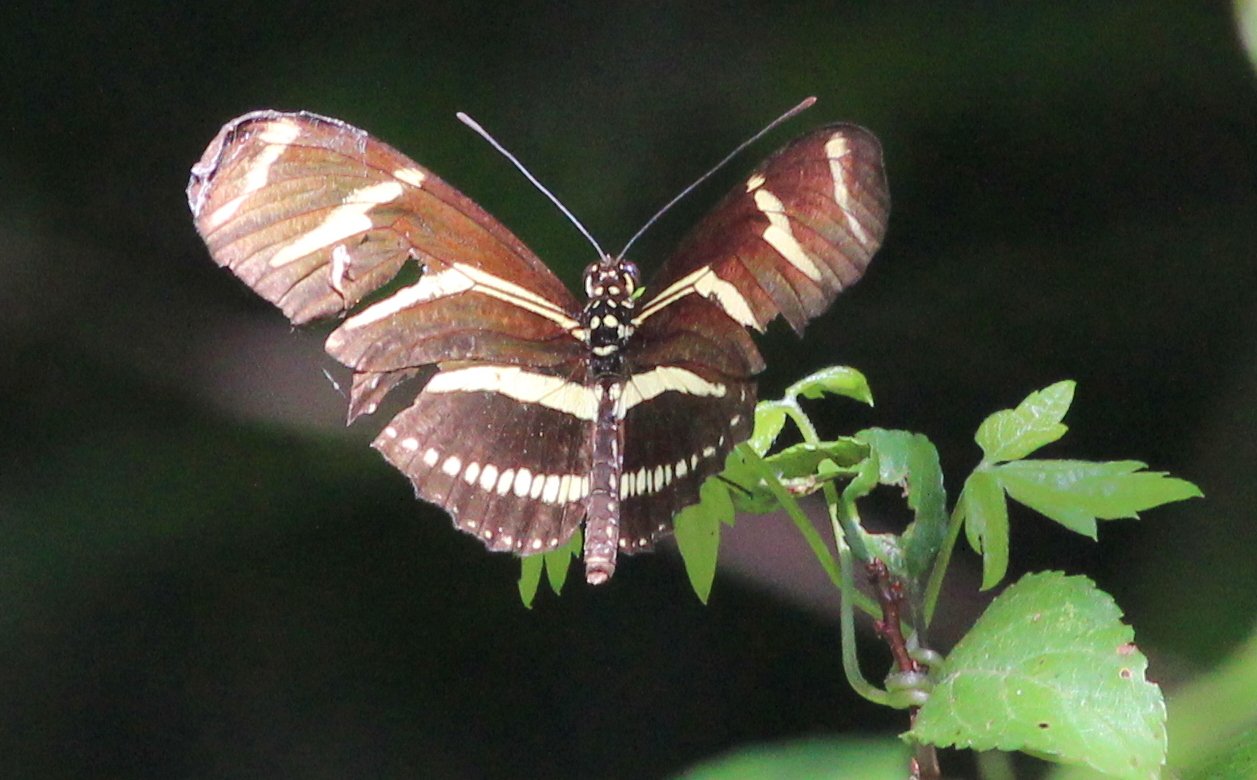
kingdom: Animalia
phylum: Arthropoda
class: Insecta
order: Lepidoptera
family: Nymphalidae
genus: Heliconius
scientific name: Heliconius charithonia
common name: Zebra Longwing
